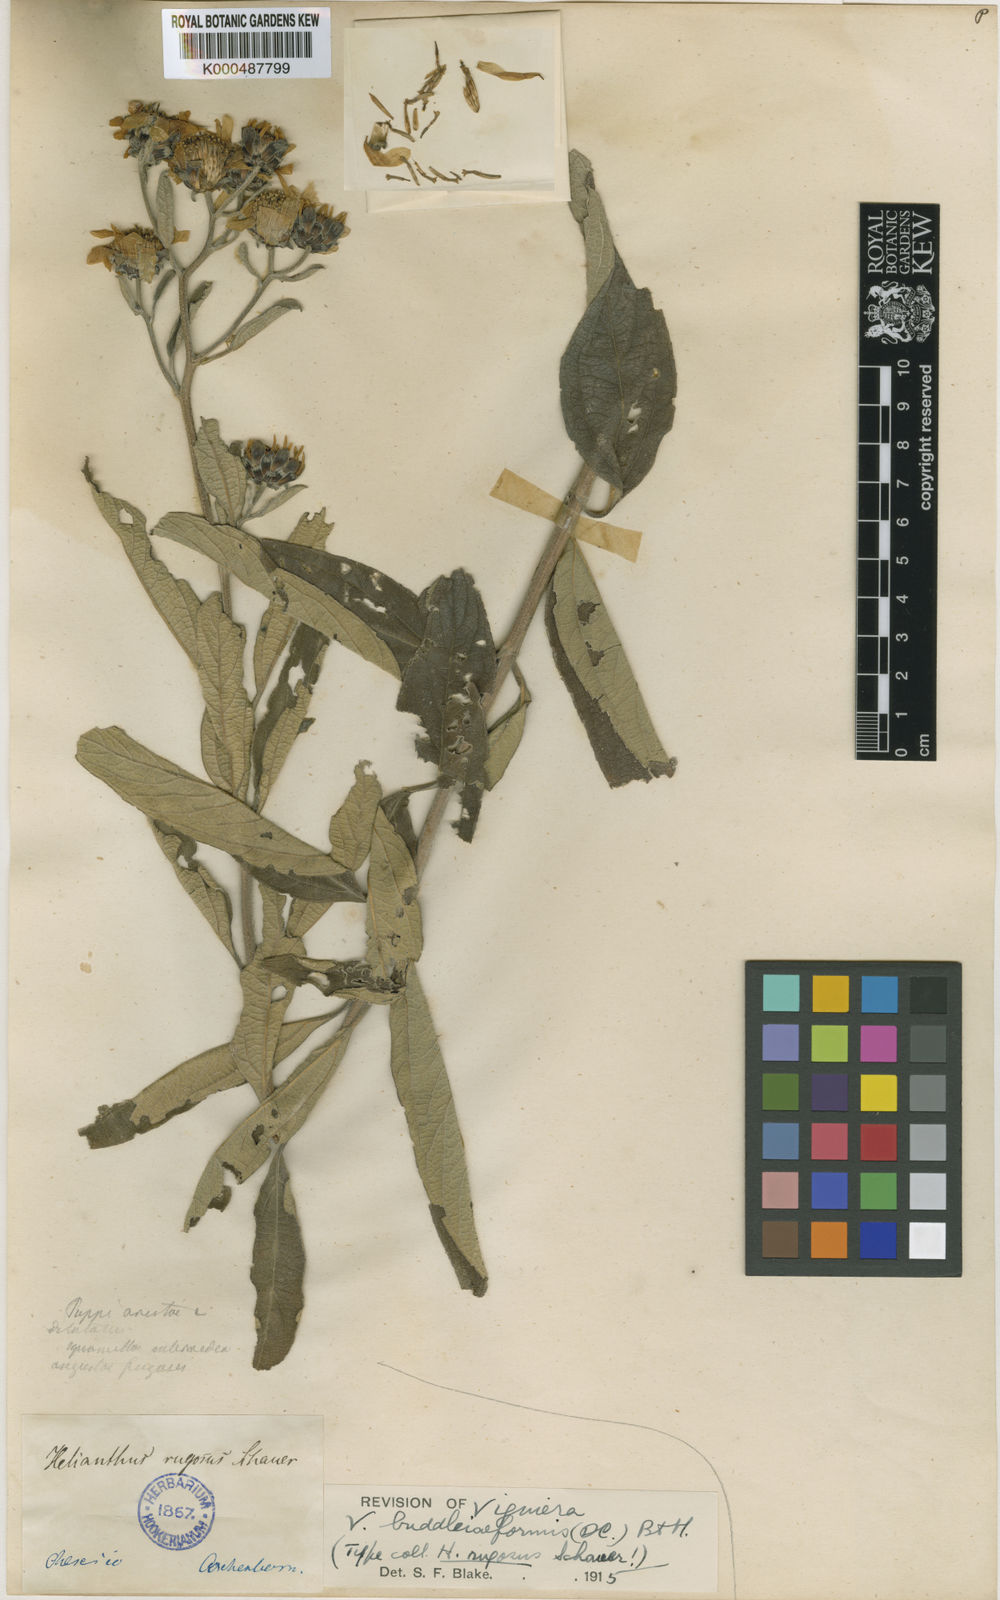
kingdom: Plantae
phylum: Tracheophyta
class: Magnoliopsida
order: Asterales
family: Asteraceae
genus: Aldama
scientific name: Aldama buddlejiformis
